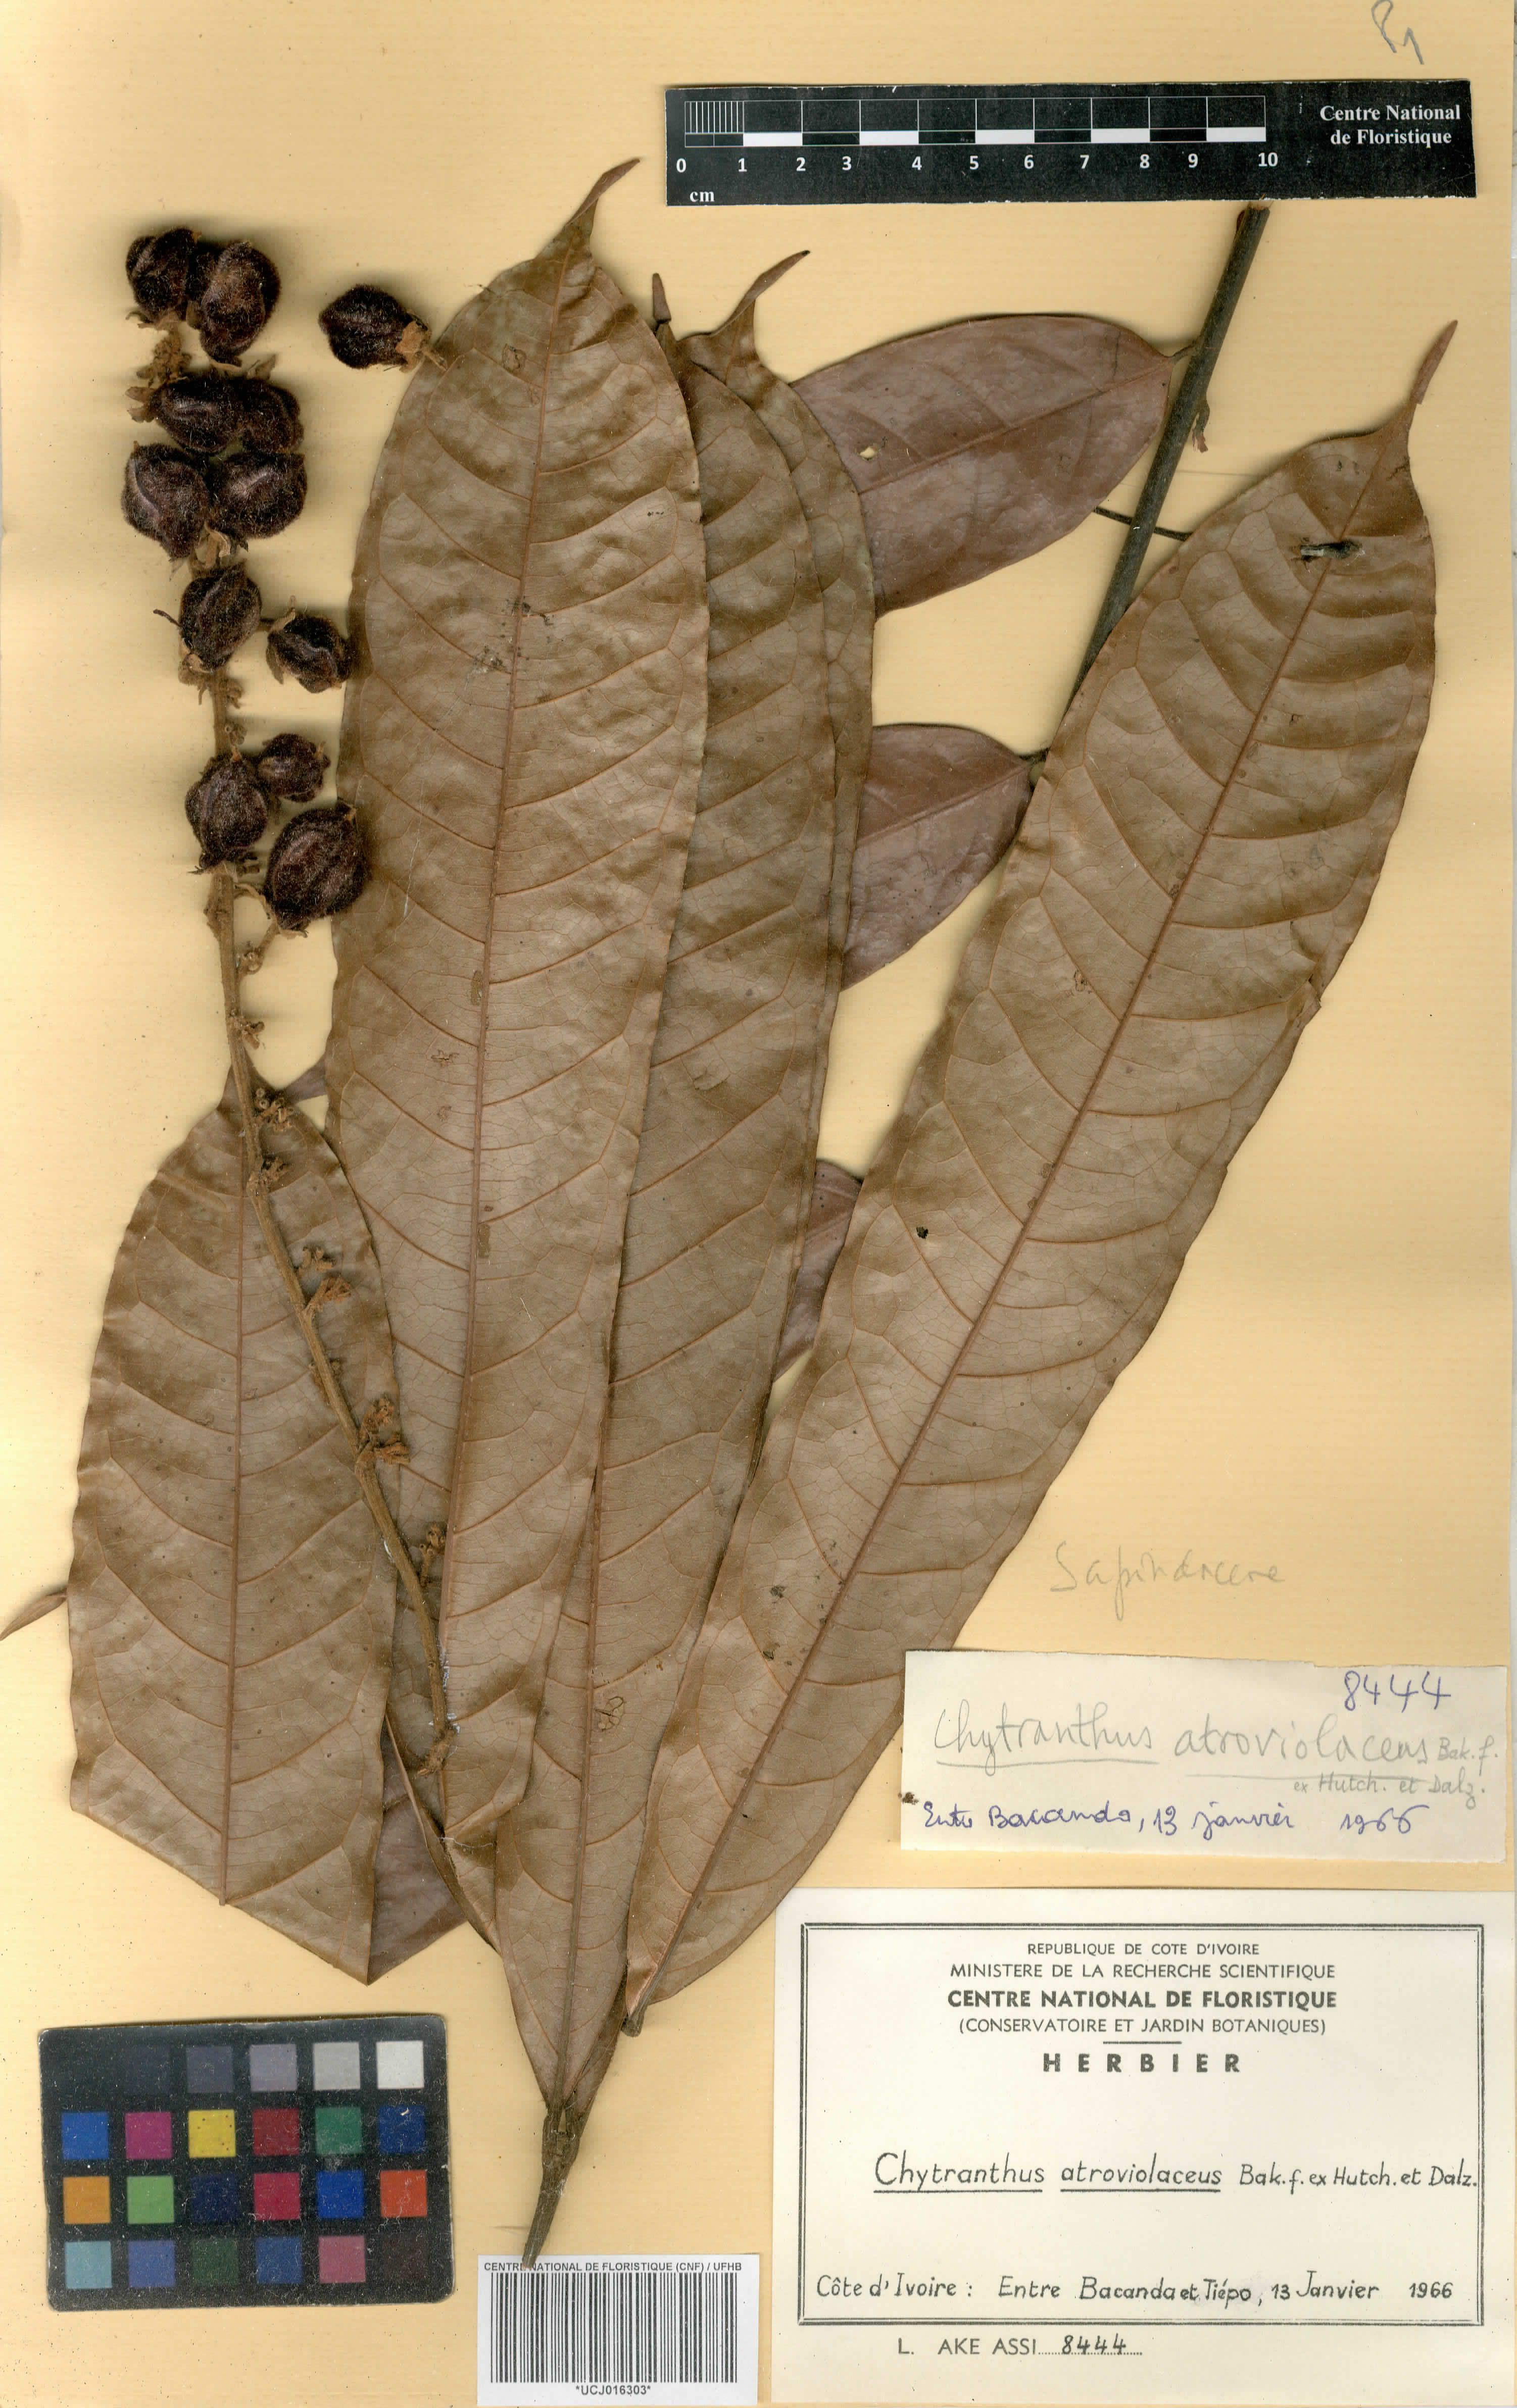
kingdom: Plantae
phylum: Tracheophyta
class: Magnoliopsida
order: Sapindales
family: Sapindaceae
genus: Chytranthus
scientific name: Chytranthus atroviolaceus
